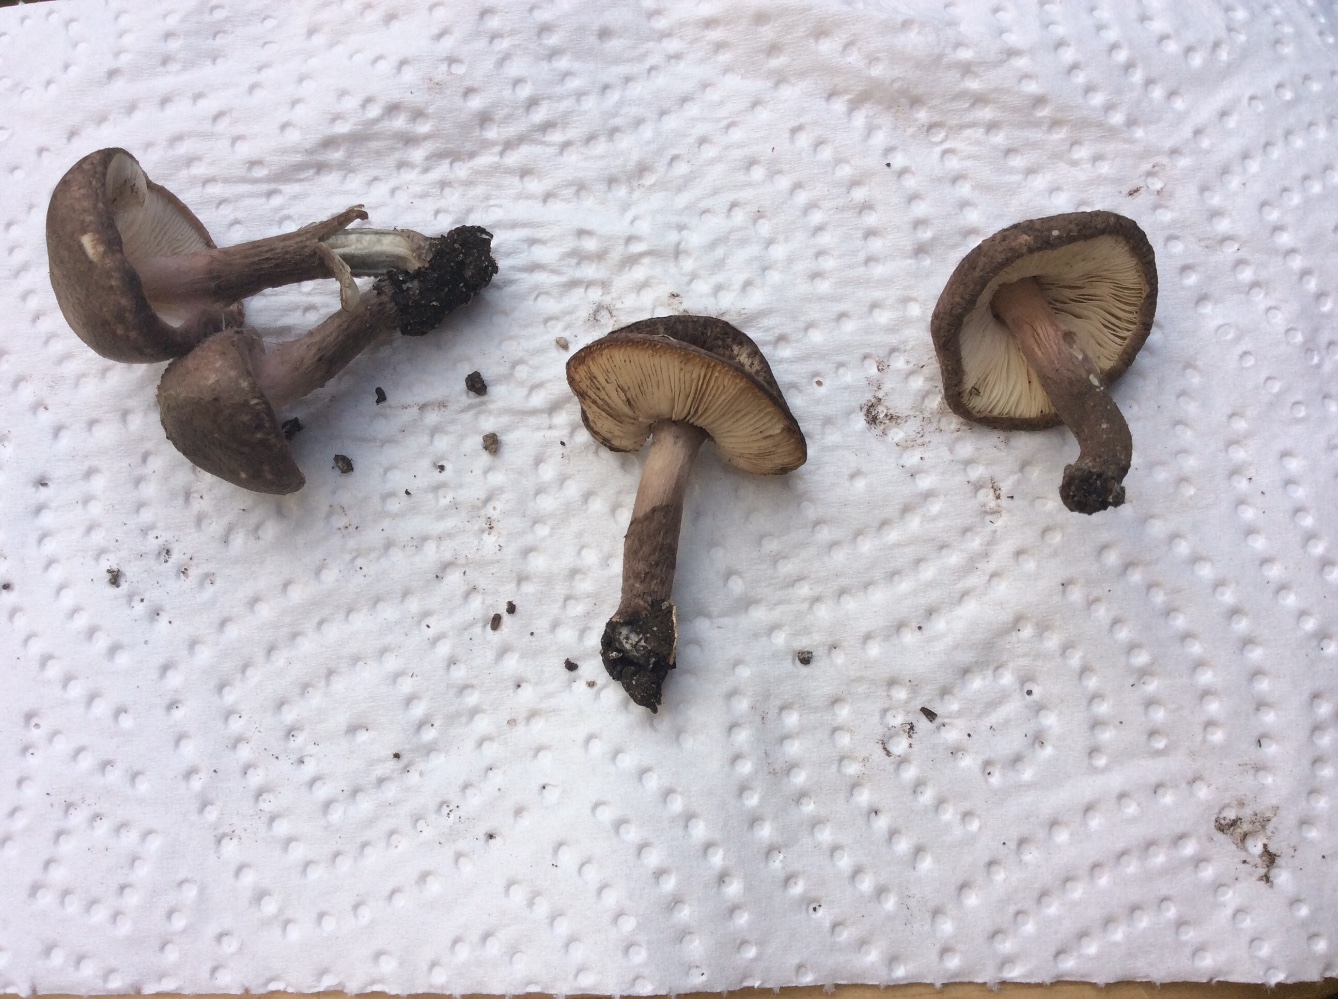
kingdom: Fungi
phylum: Basidiomycota
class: Agaricomycetes
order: Agaricales
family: Agaricaceae
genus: Lepiota
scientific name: Lepiota fuscovinacea
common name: vinrød parasolhat
